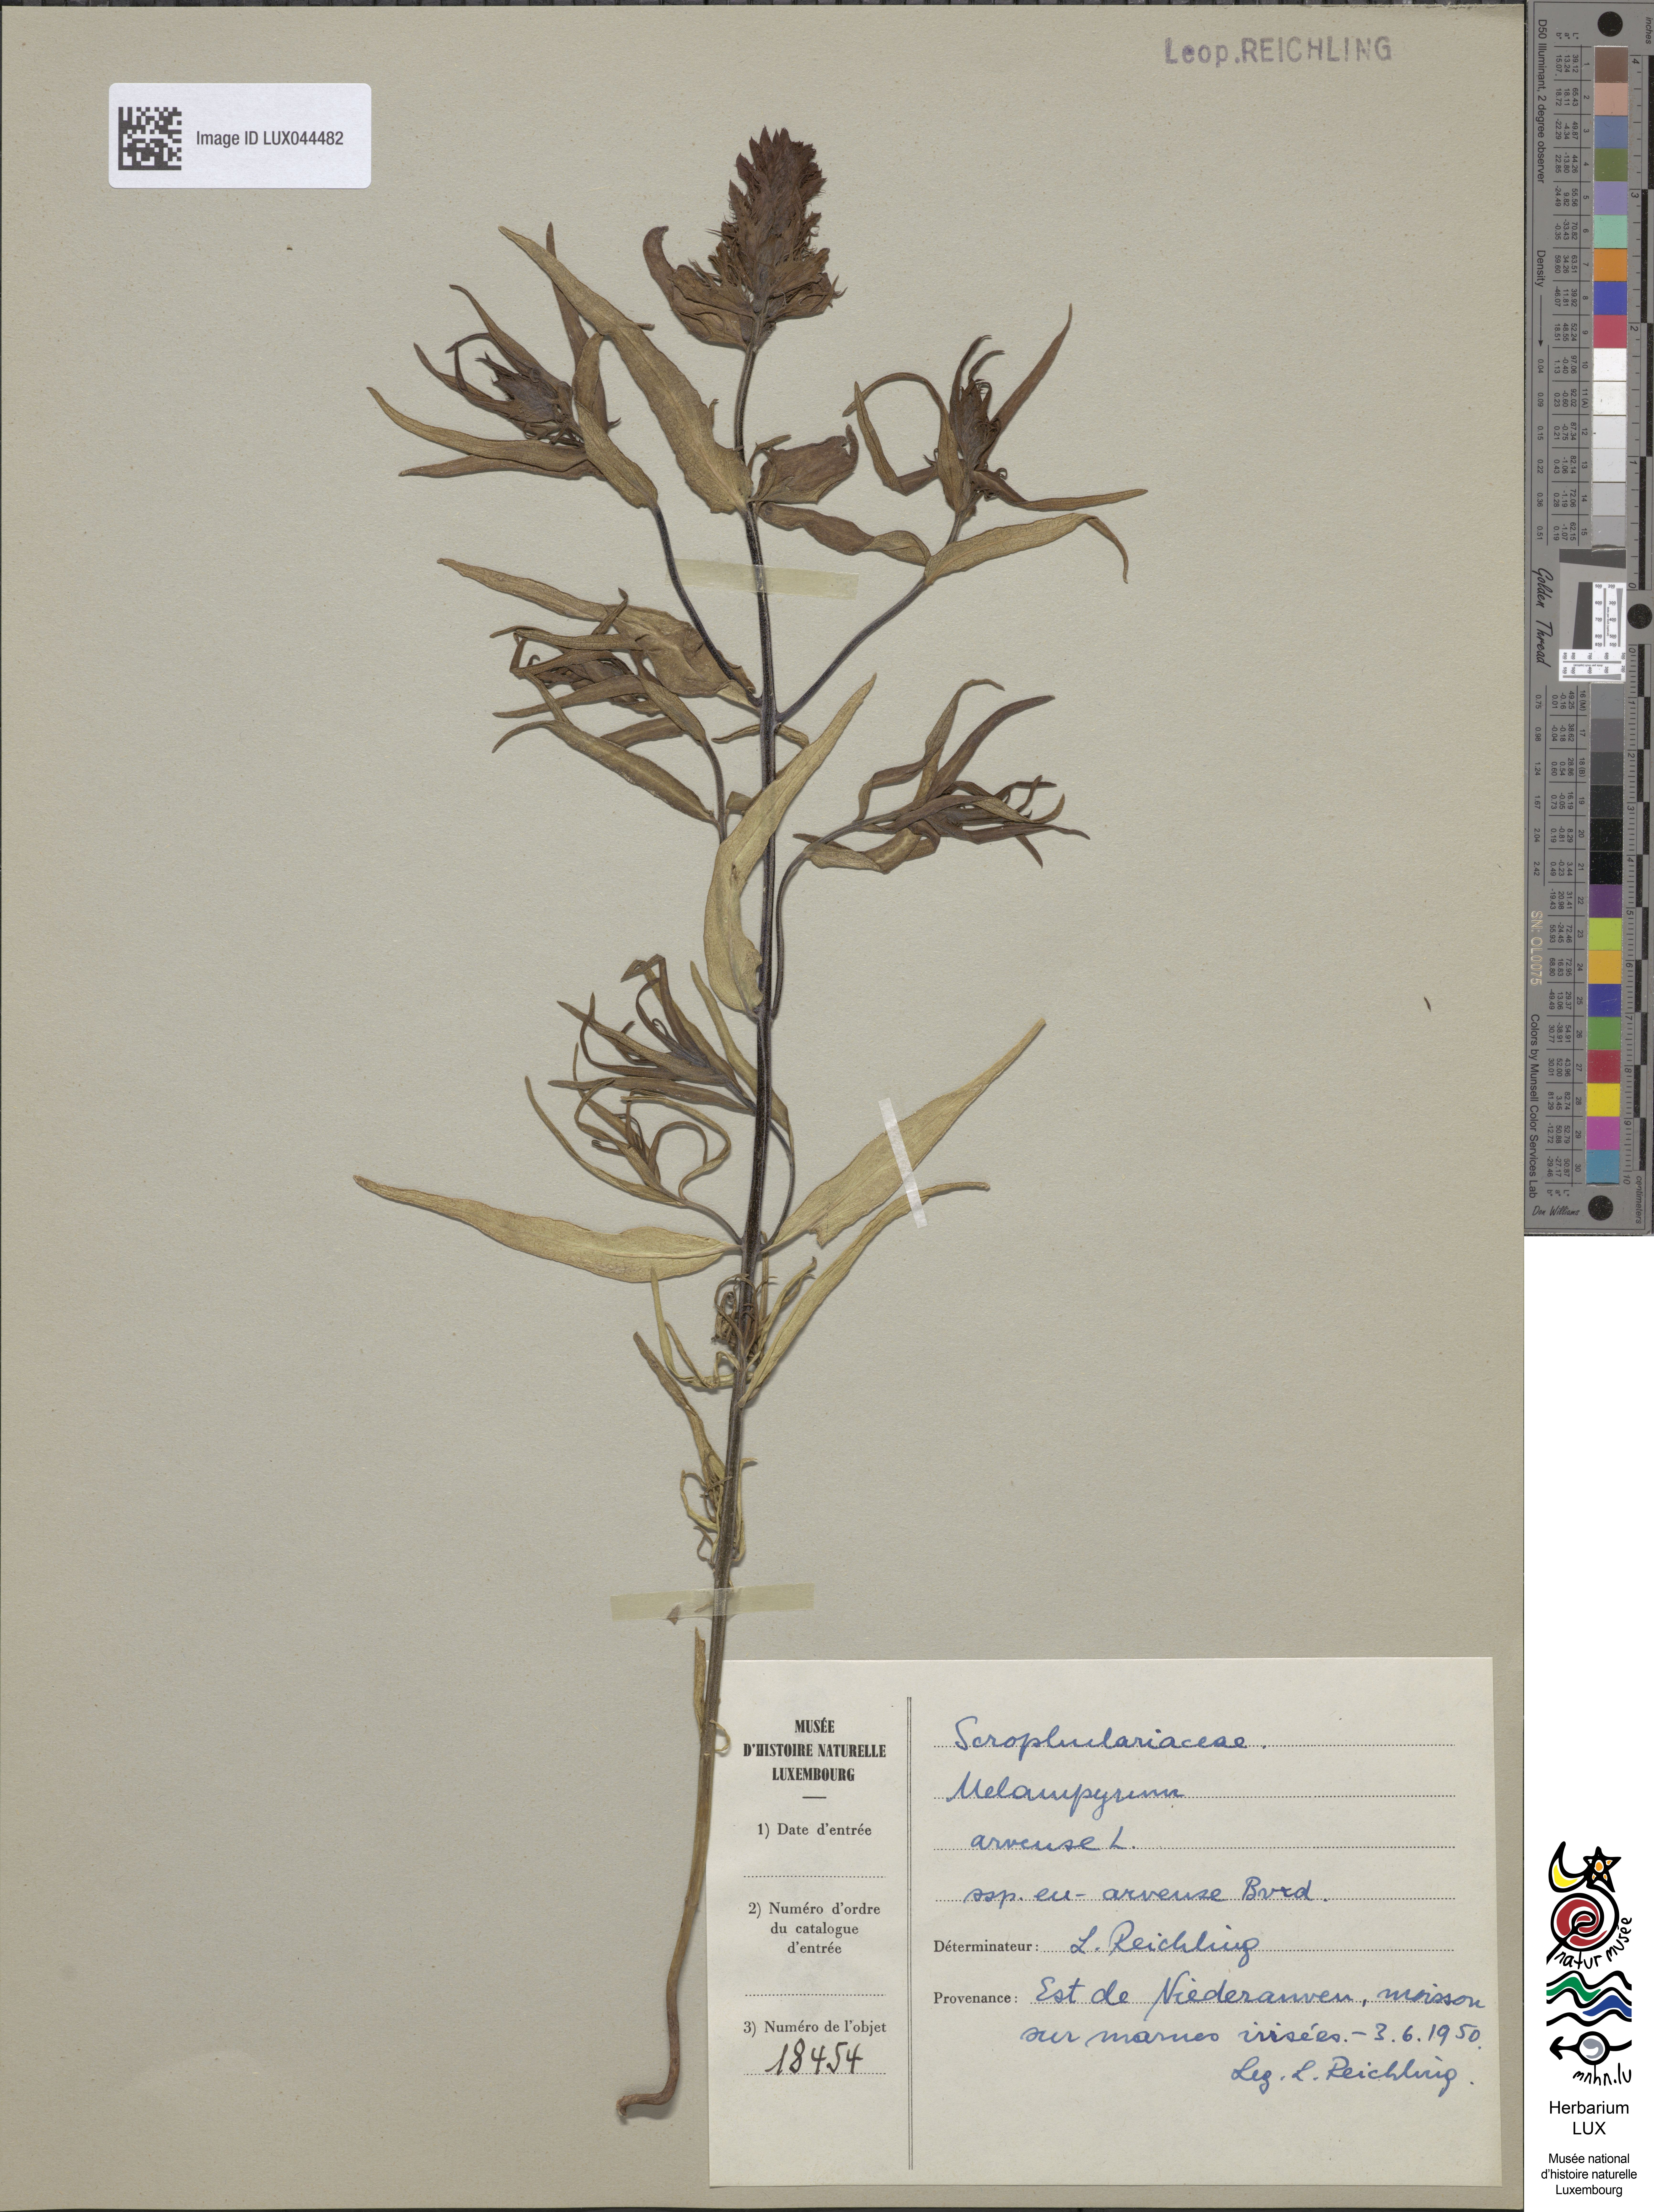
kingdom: Plantae
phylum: Tracheophyta
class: Magnoliopsida
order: Lamiales
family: Orobanchaceae
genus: Melampyrum
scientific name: Melampyrum arvense
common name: Field cow-wheat
